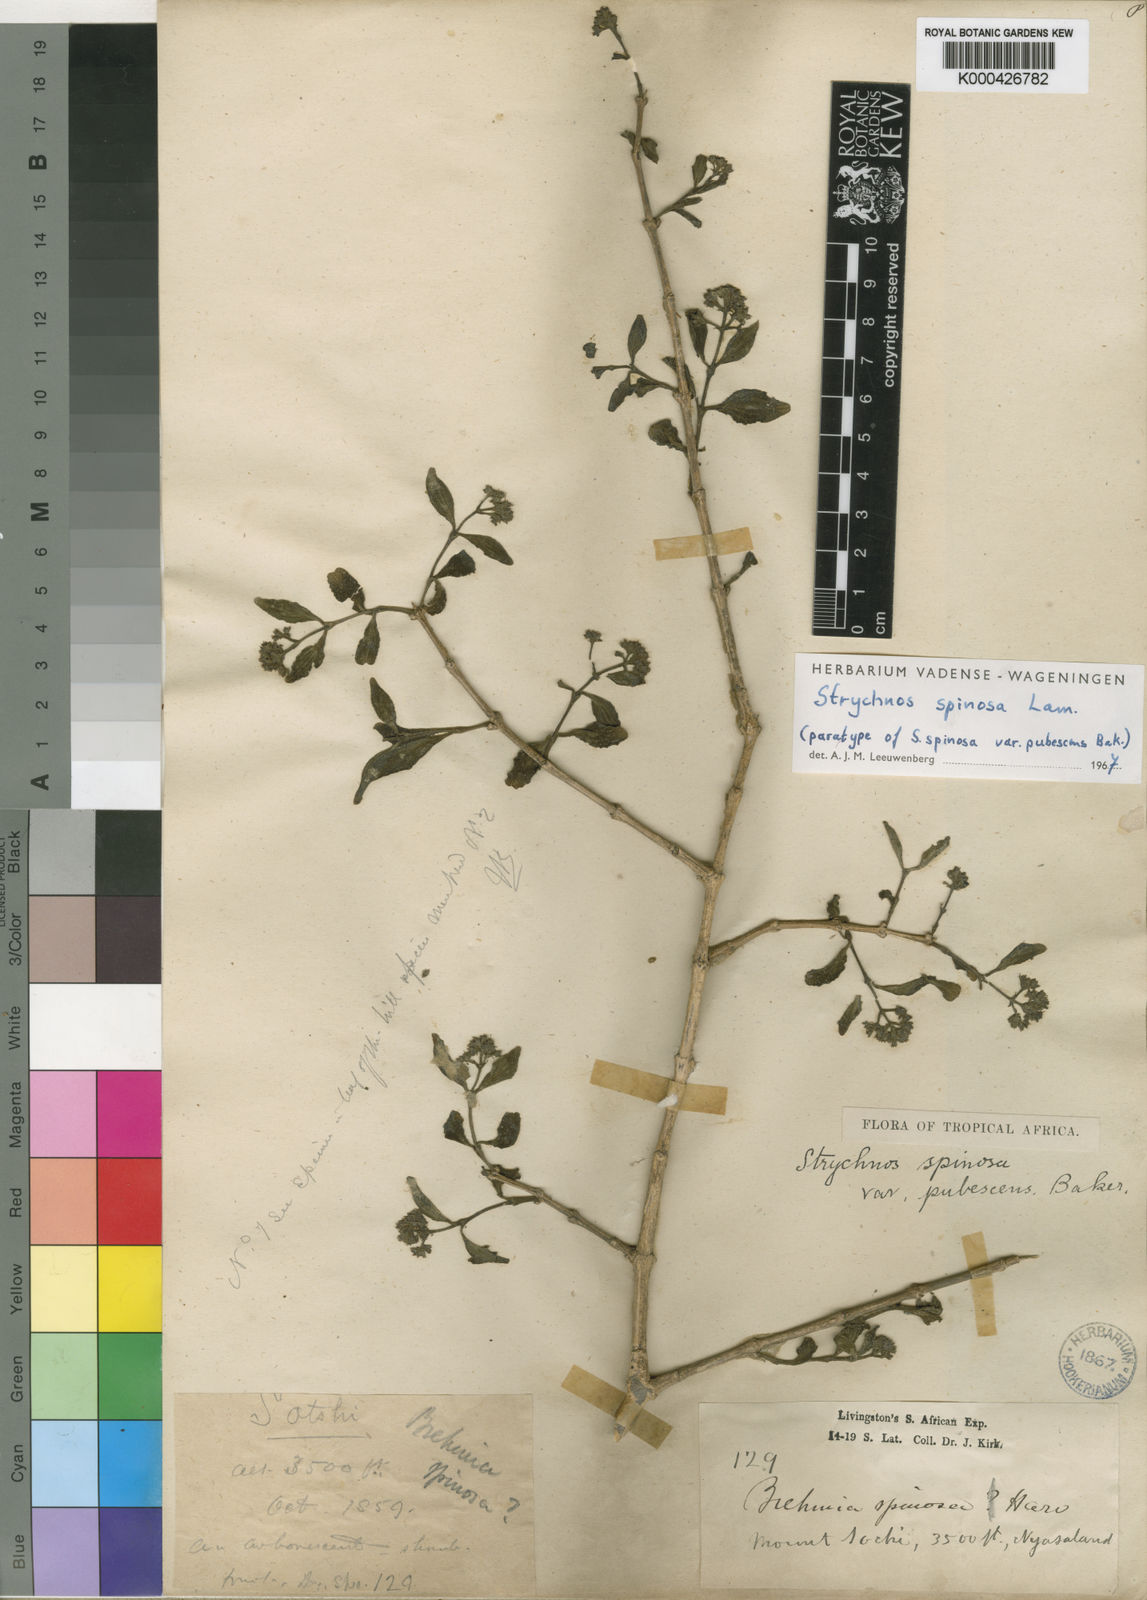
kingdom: Plantae
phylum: Tracheophyta
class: Magnoliopsida
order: Gentianales
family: Loganiaceae
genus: Strychnos
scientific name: Strychnos spinosa
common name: Natal orange
